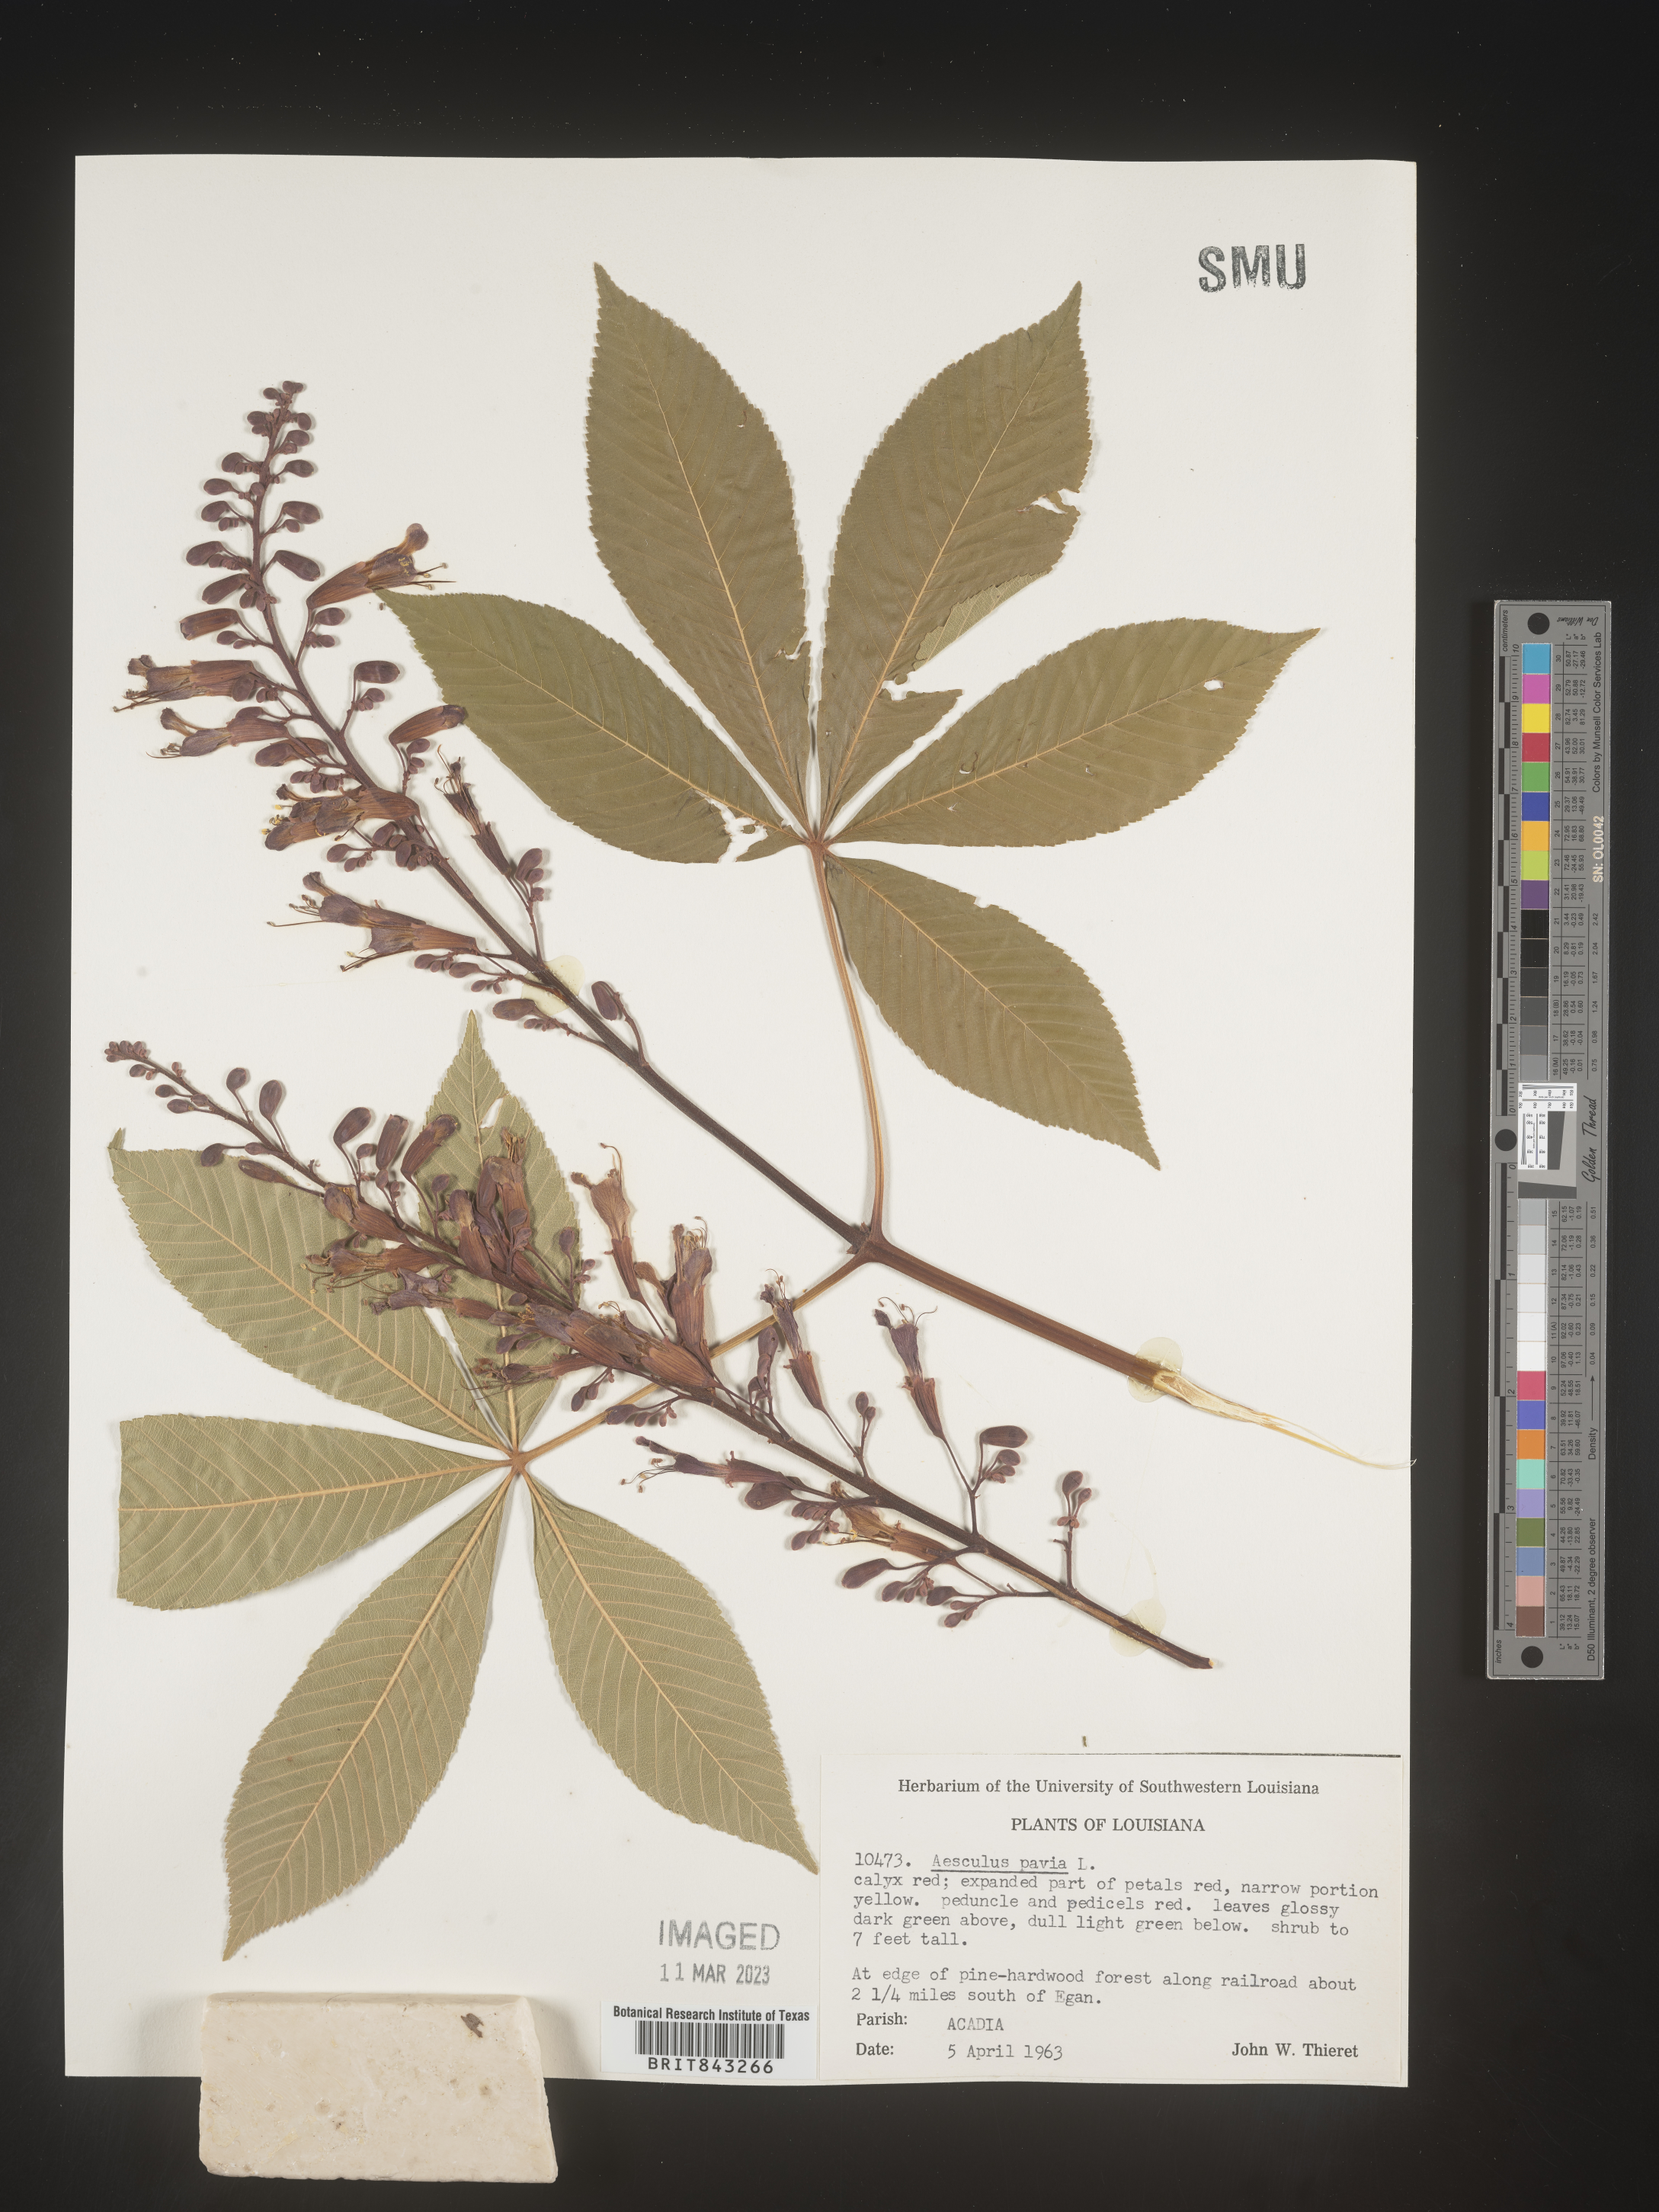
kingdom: Plantae
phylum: Tracheophyta
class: Magnoliopsida
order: Sapindales
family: Sapindaceae
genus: Aesculus
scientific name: Aesculus pavia
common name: Red buckeye
